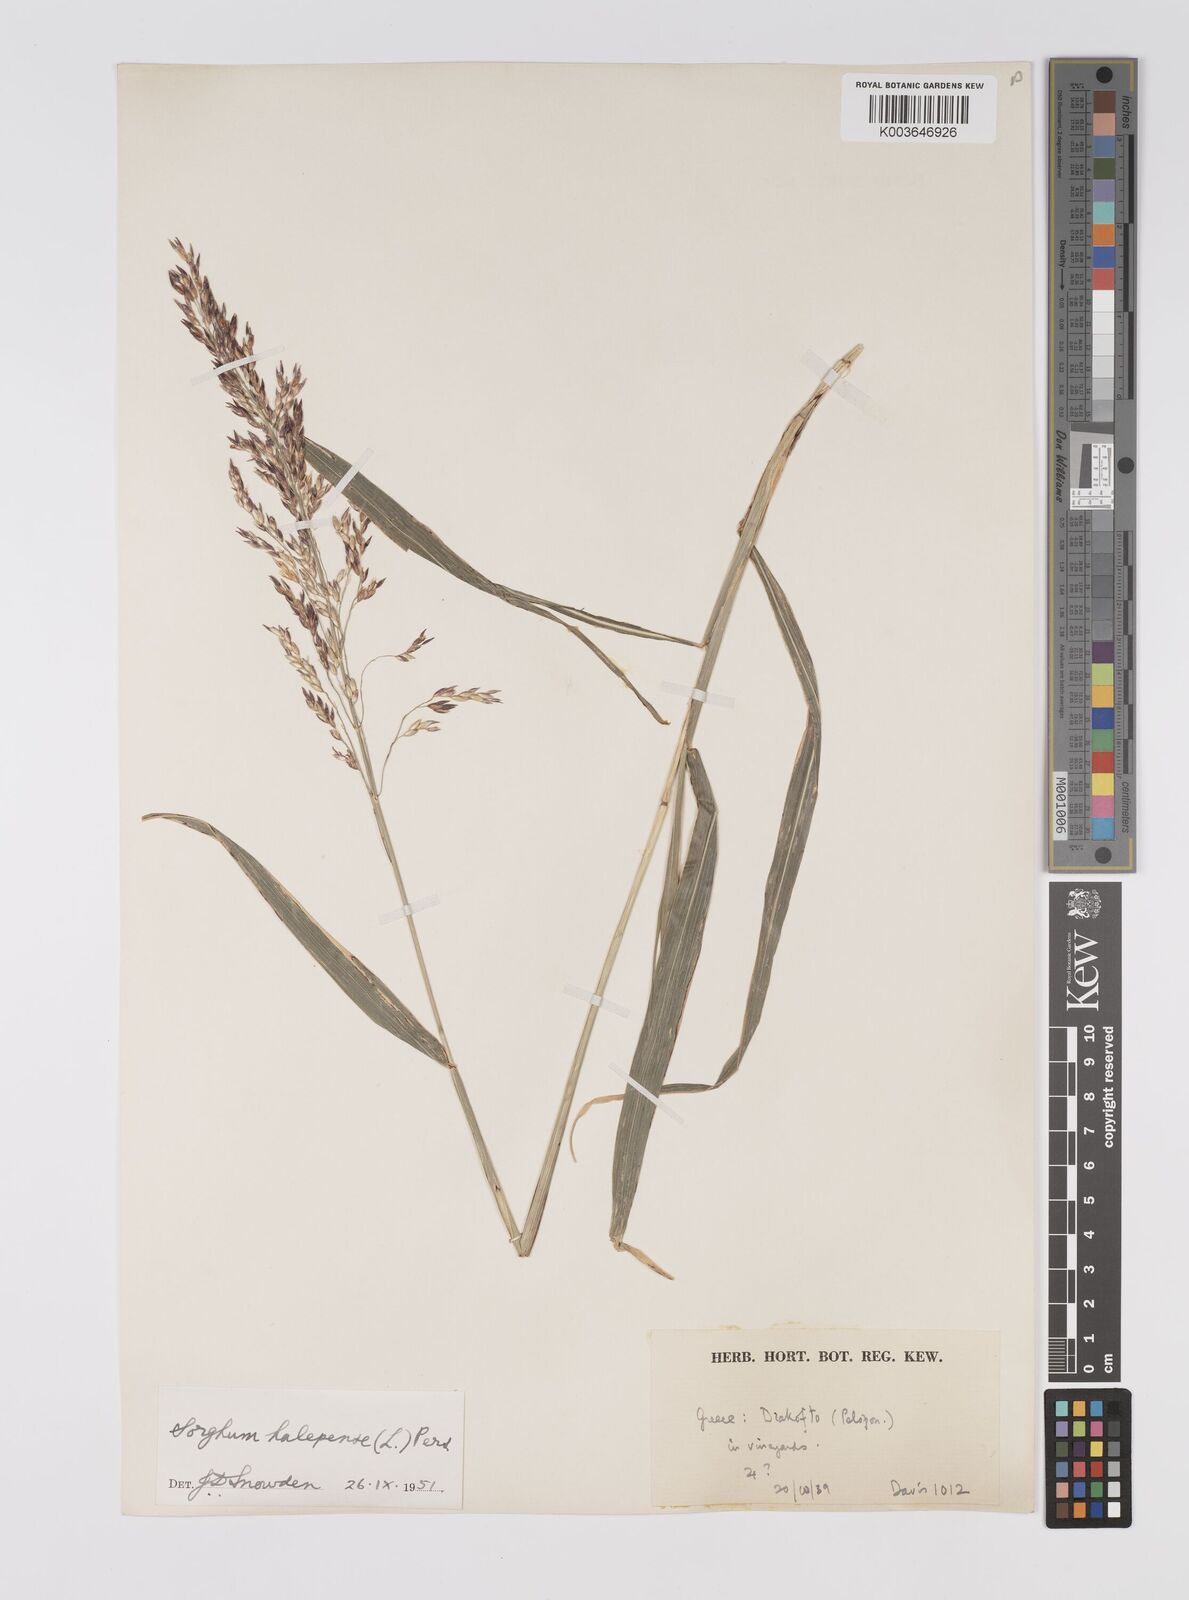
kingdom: Plantae
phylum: Tracheophyta
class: Liliopsida
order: Poales
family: Poaceae
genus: Sorghum
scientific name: Sorghum halepense
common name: Johnson-grass
